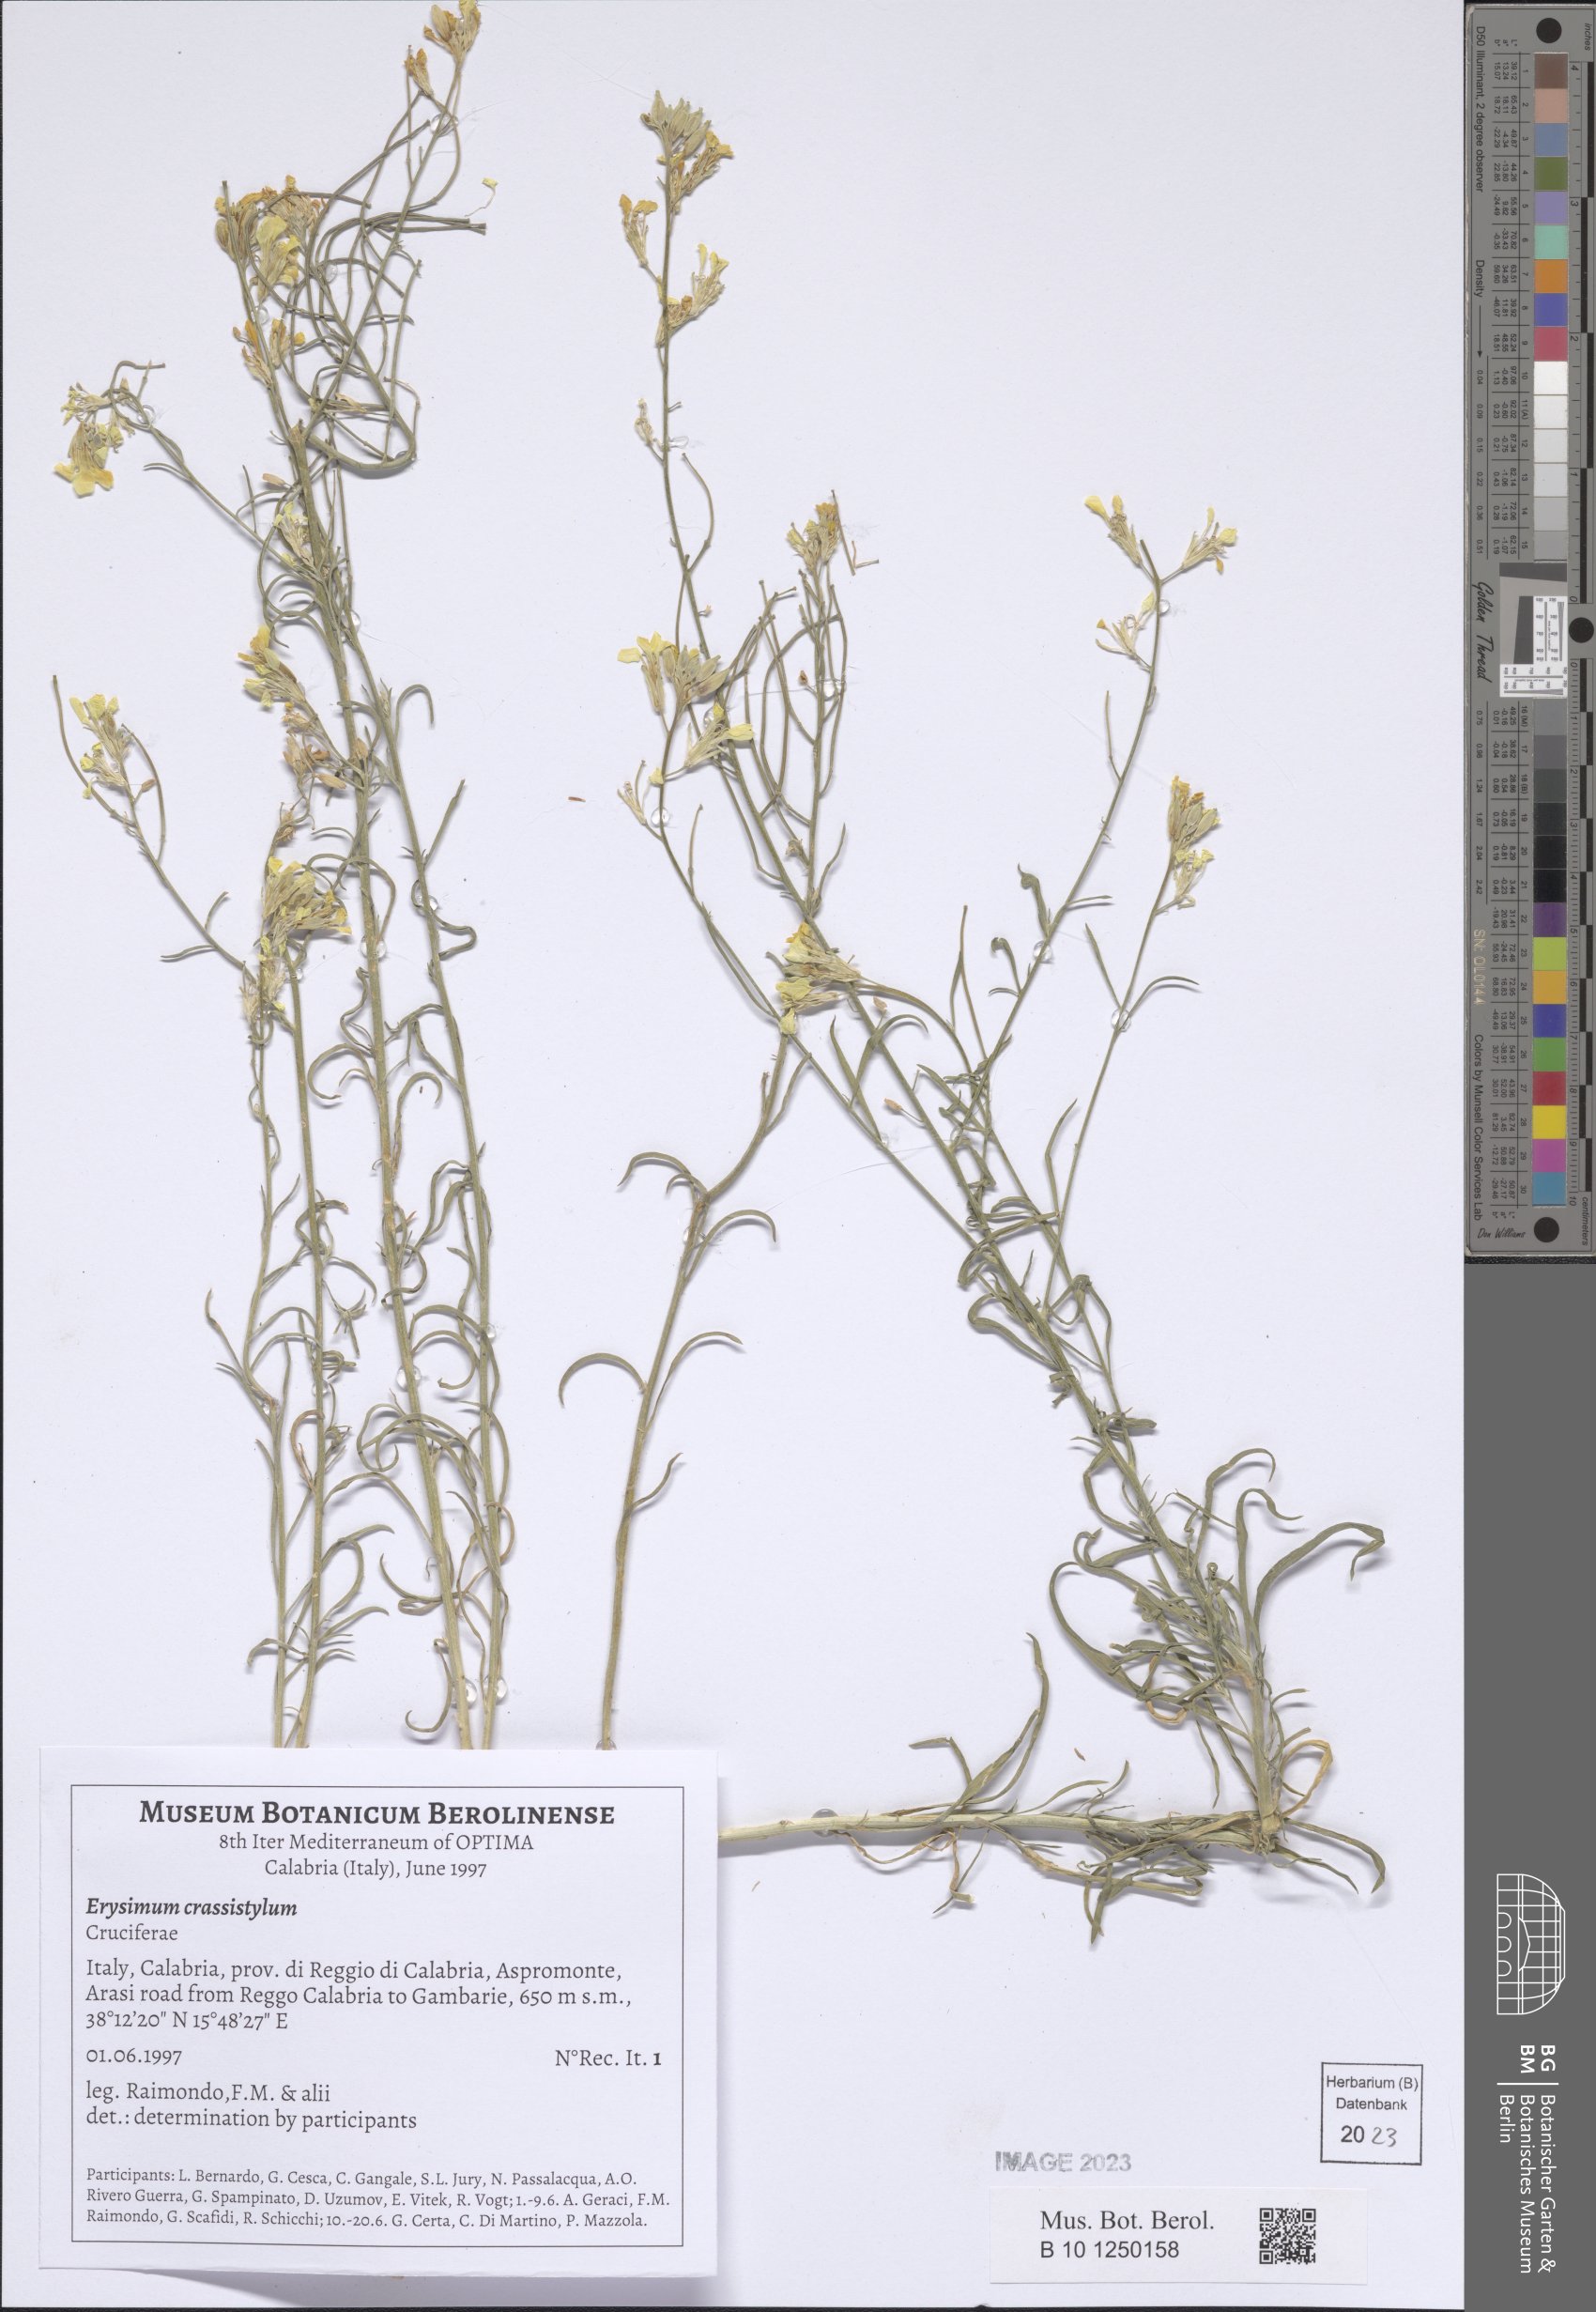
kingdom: Plantae
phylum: Tracheophyta
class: Magnoliopsida
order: Brassicales
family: Brassicaceae
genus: Erysimum
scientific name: Erysimum crassistylum
